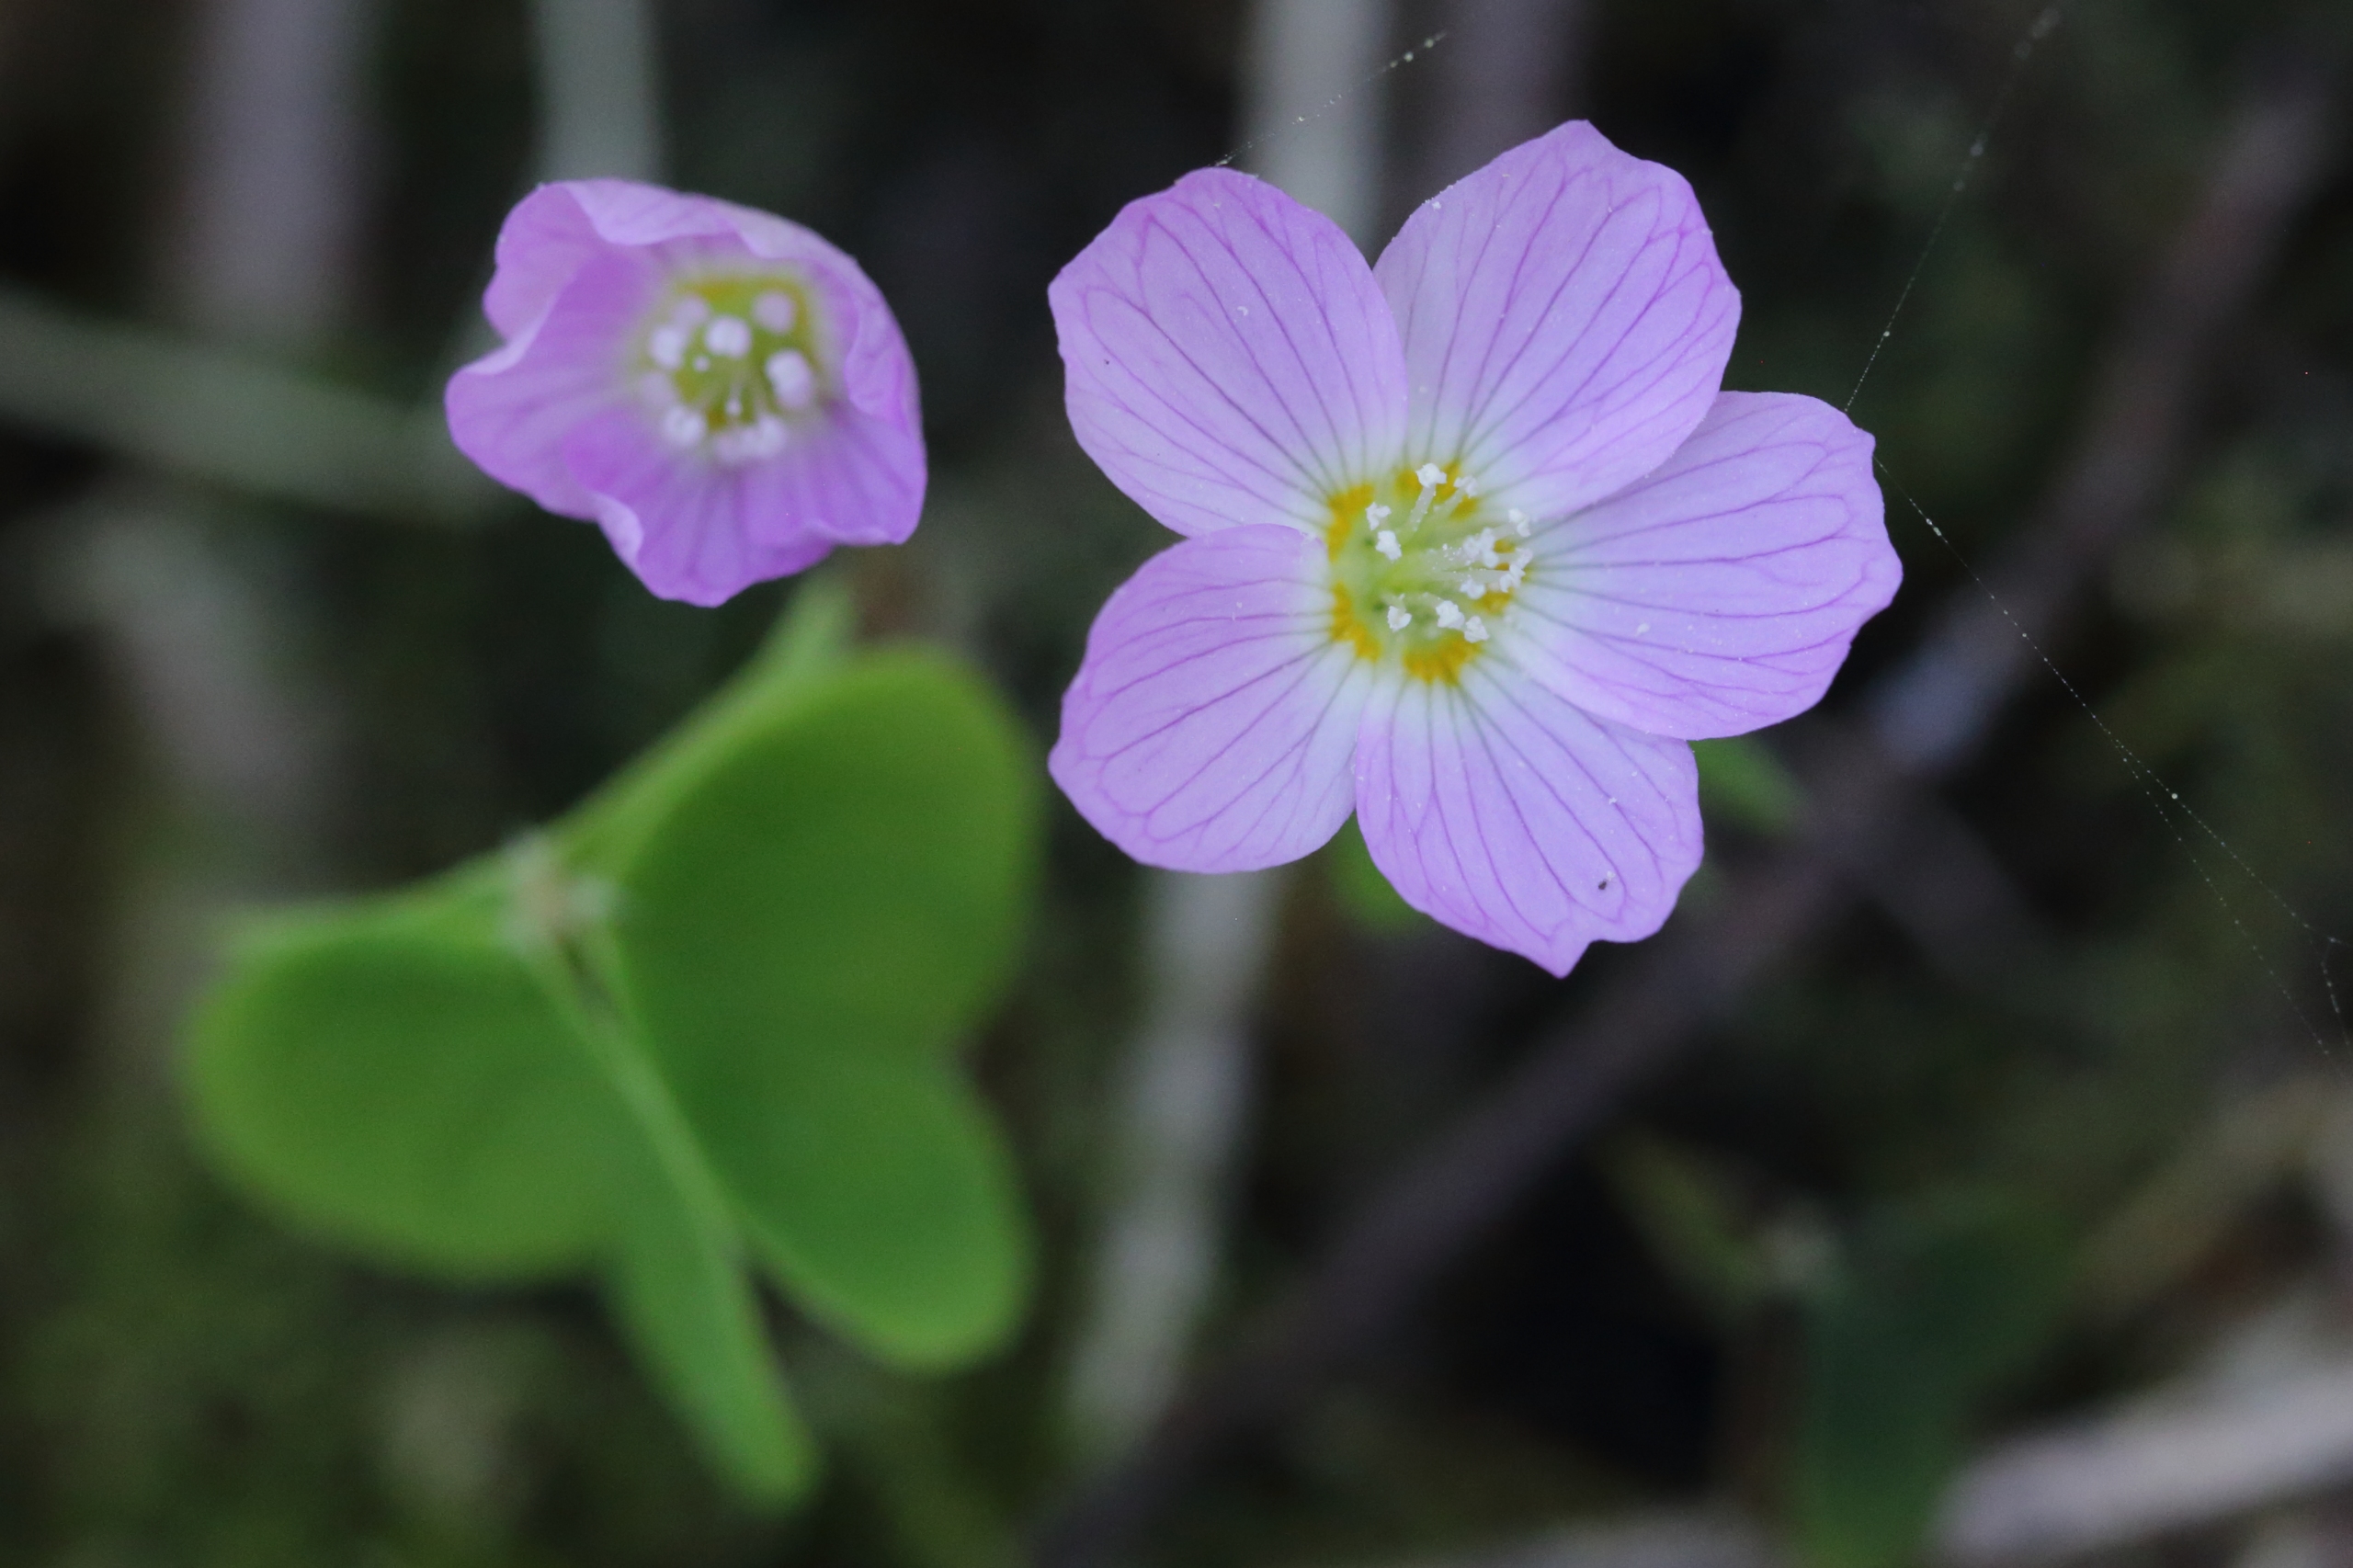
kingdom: Plantae
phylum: Tracheophyta
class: Magnoliopsida
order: Oxalidales
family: Oxalidaceae
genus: Oxalis
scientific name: Oxalis acetosella
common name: Skovsyre
